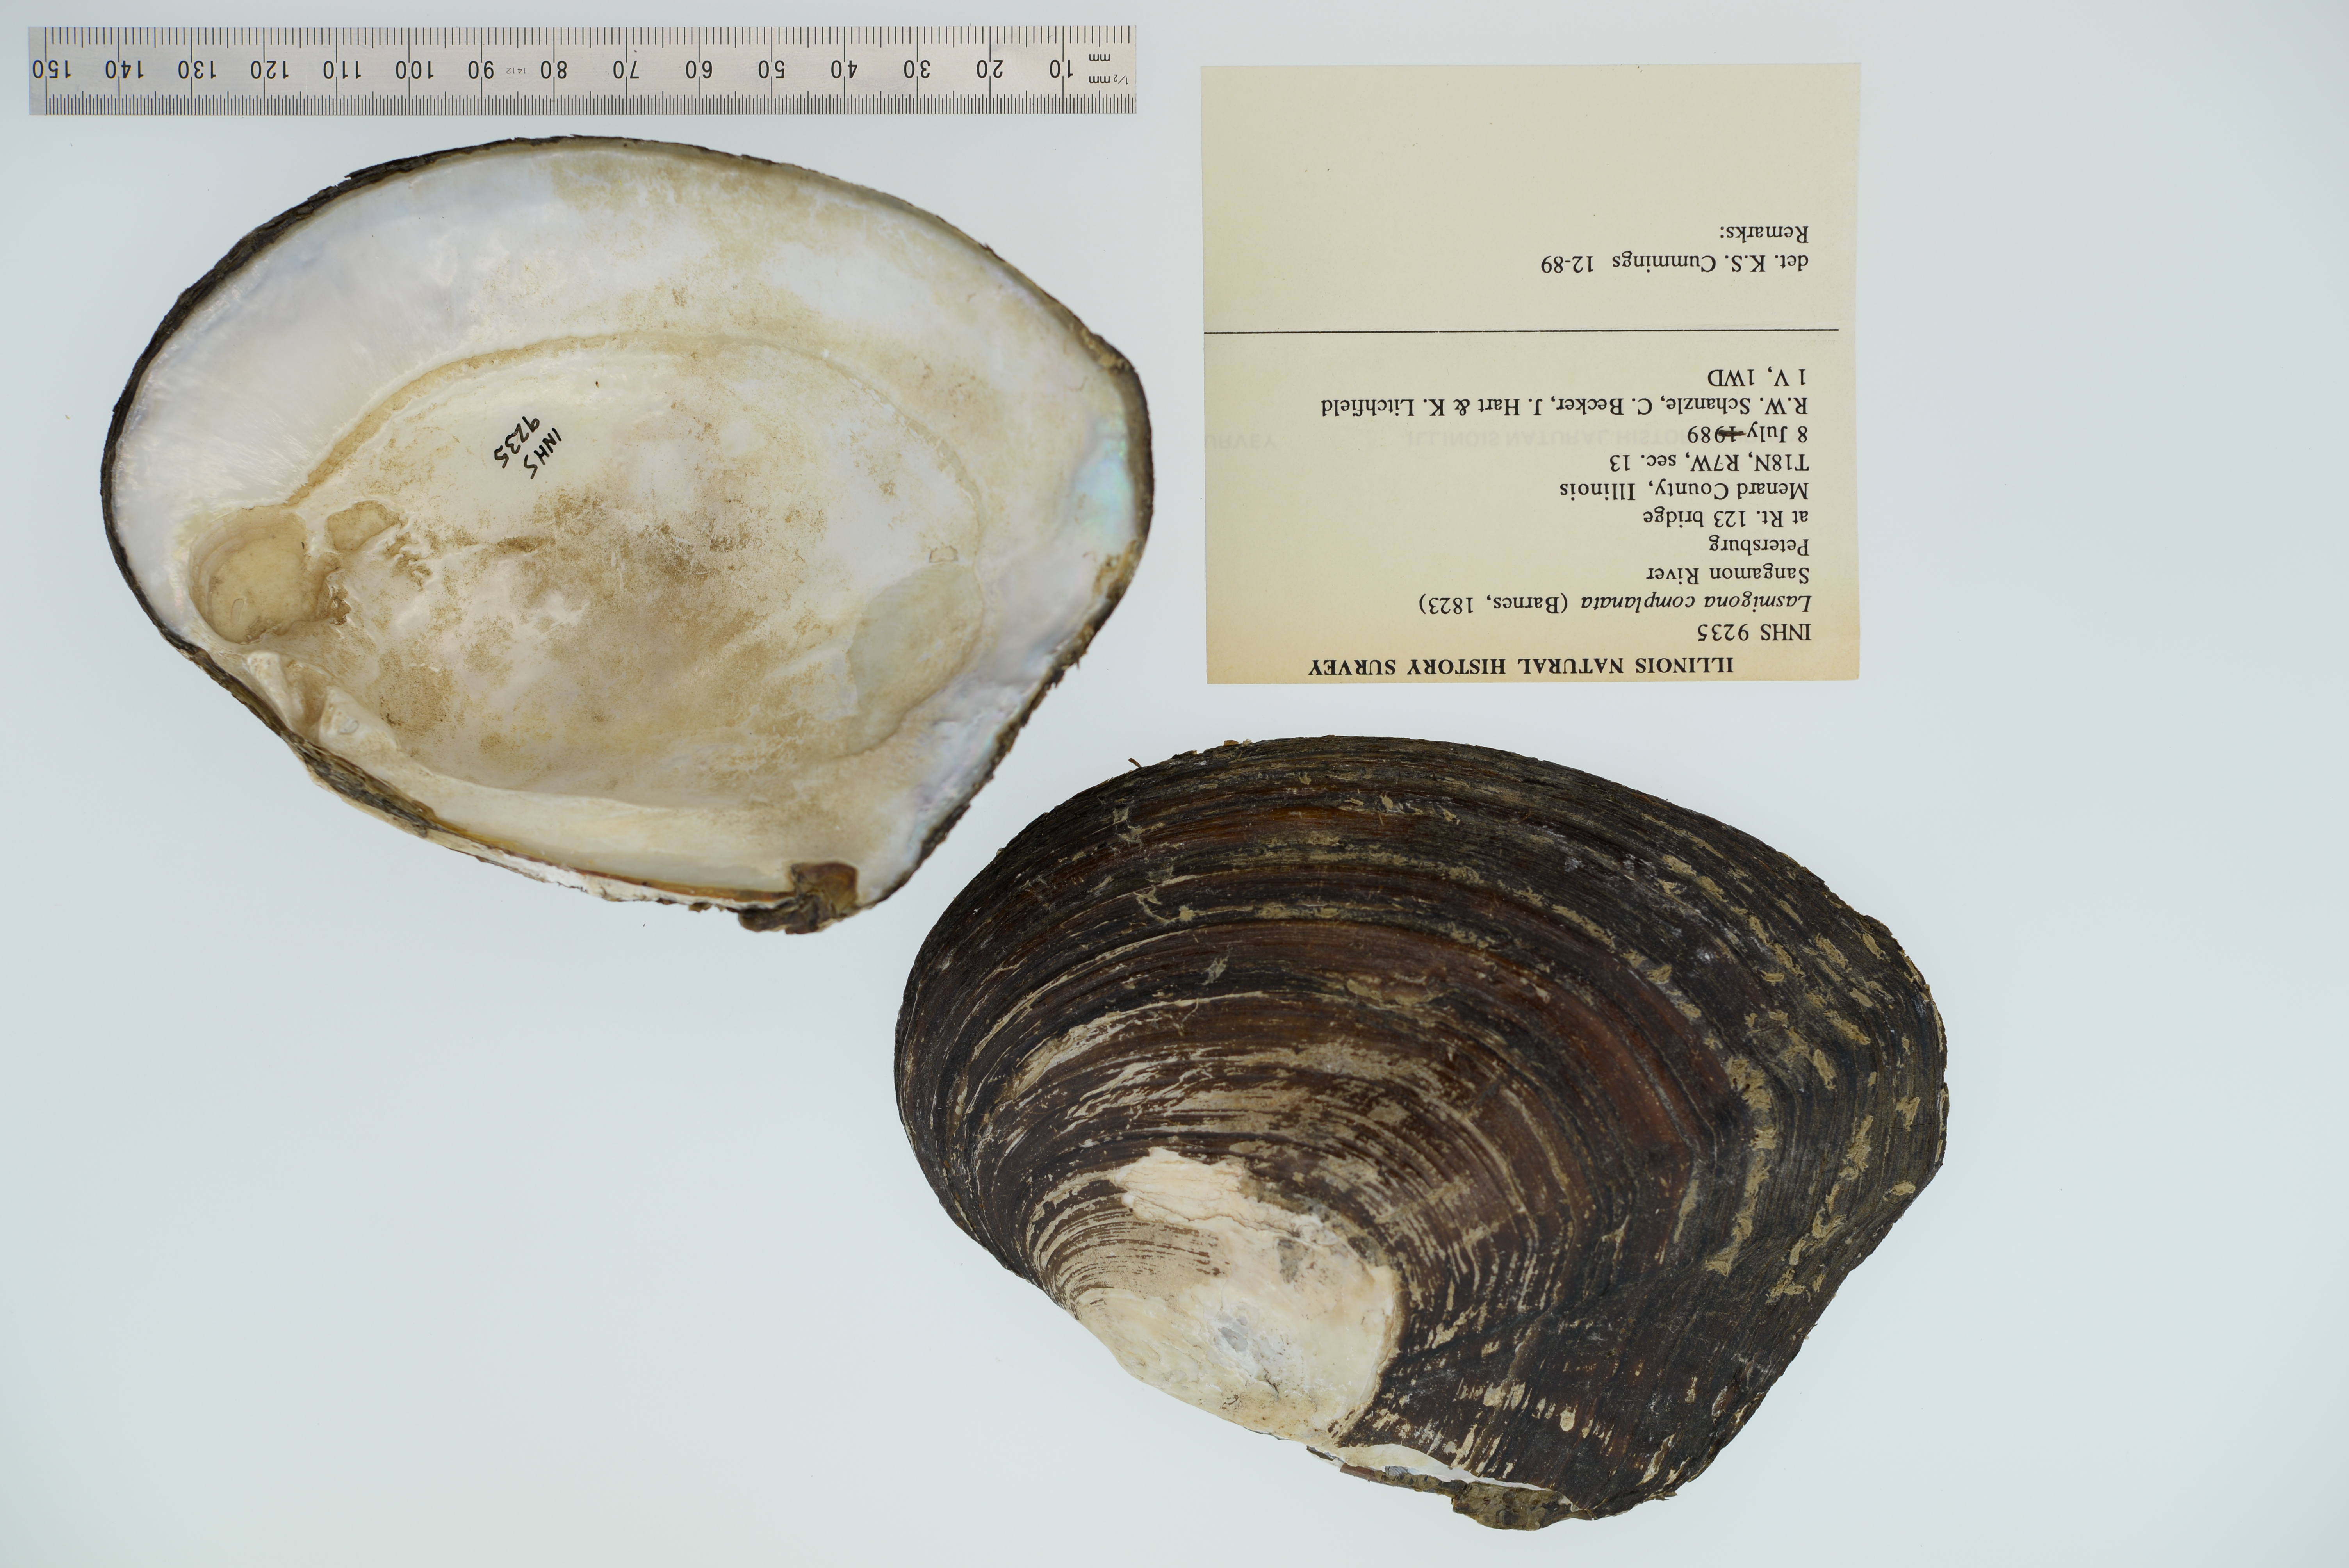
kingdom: Animalia
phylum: Mollusca
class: Bivalvia
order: Unionida
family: Unionidae
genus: Lasmigona
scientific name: Lasmigona complanata
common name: White heelsplitter
